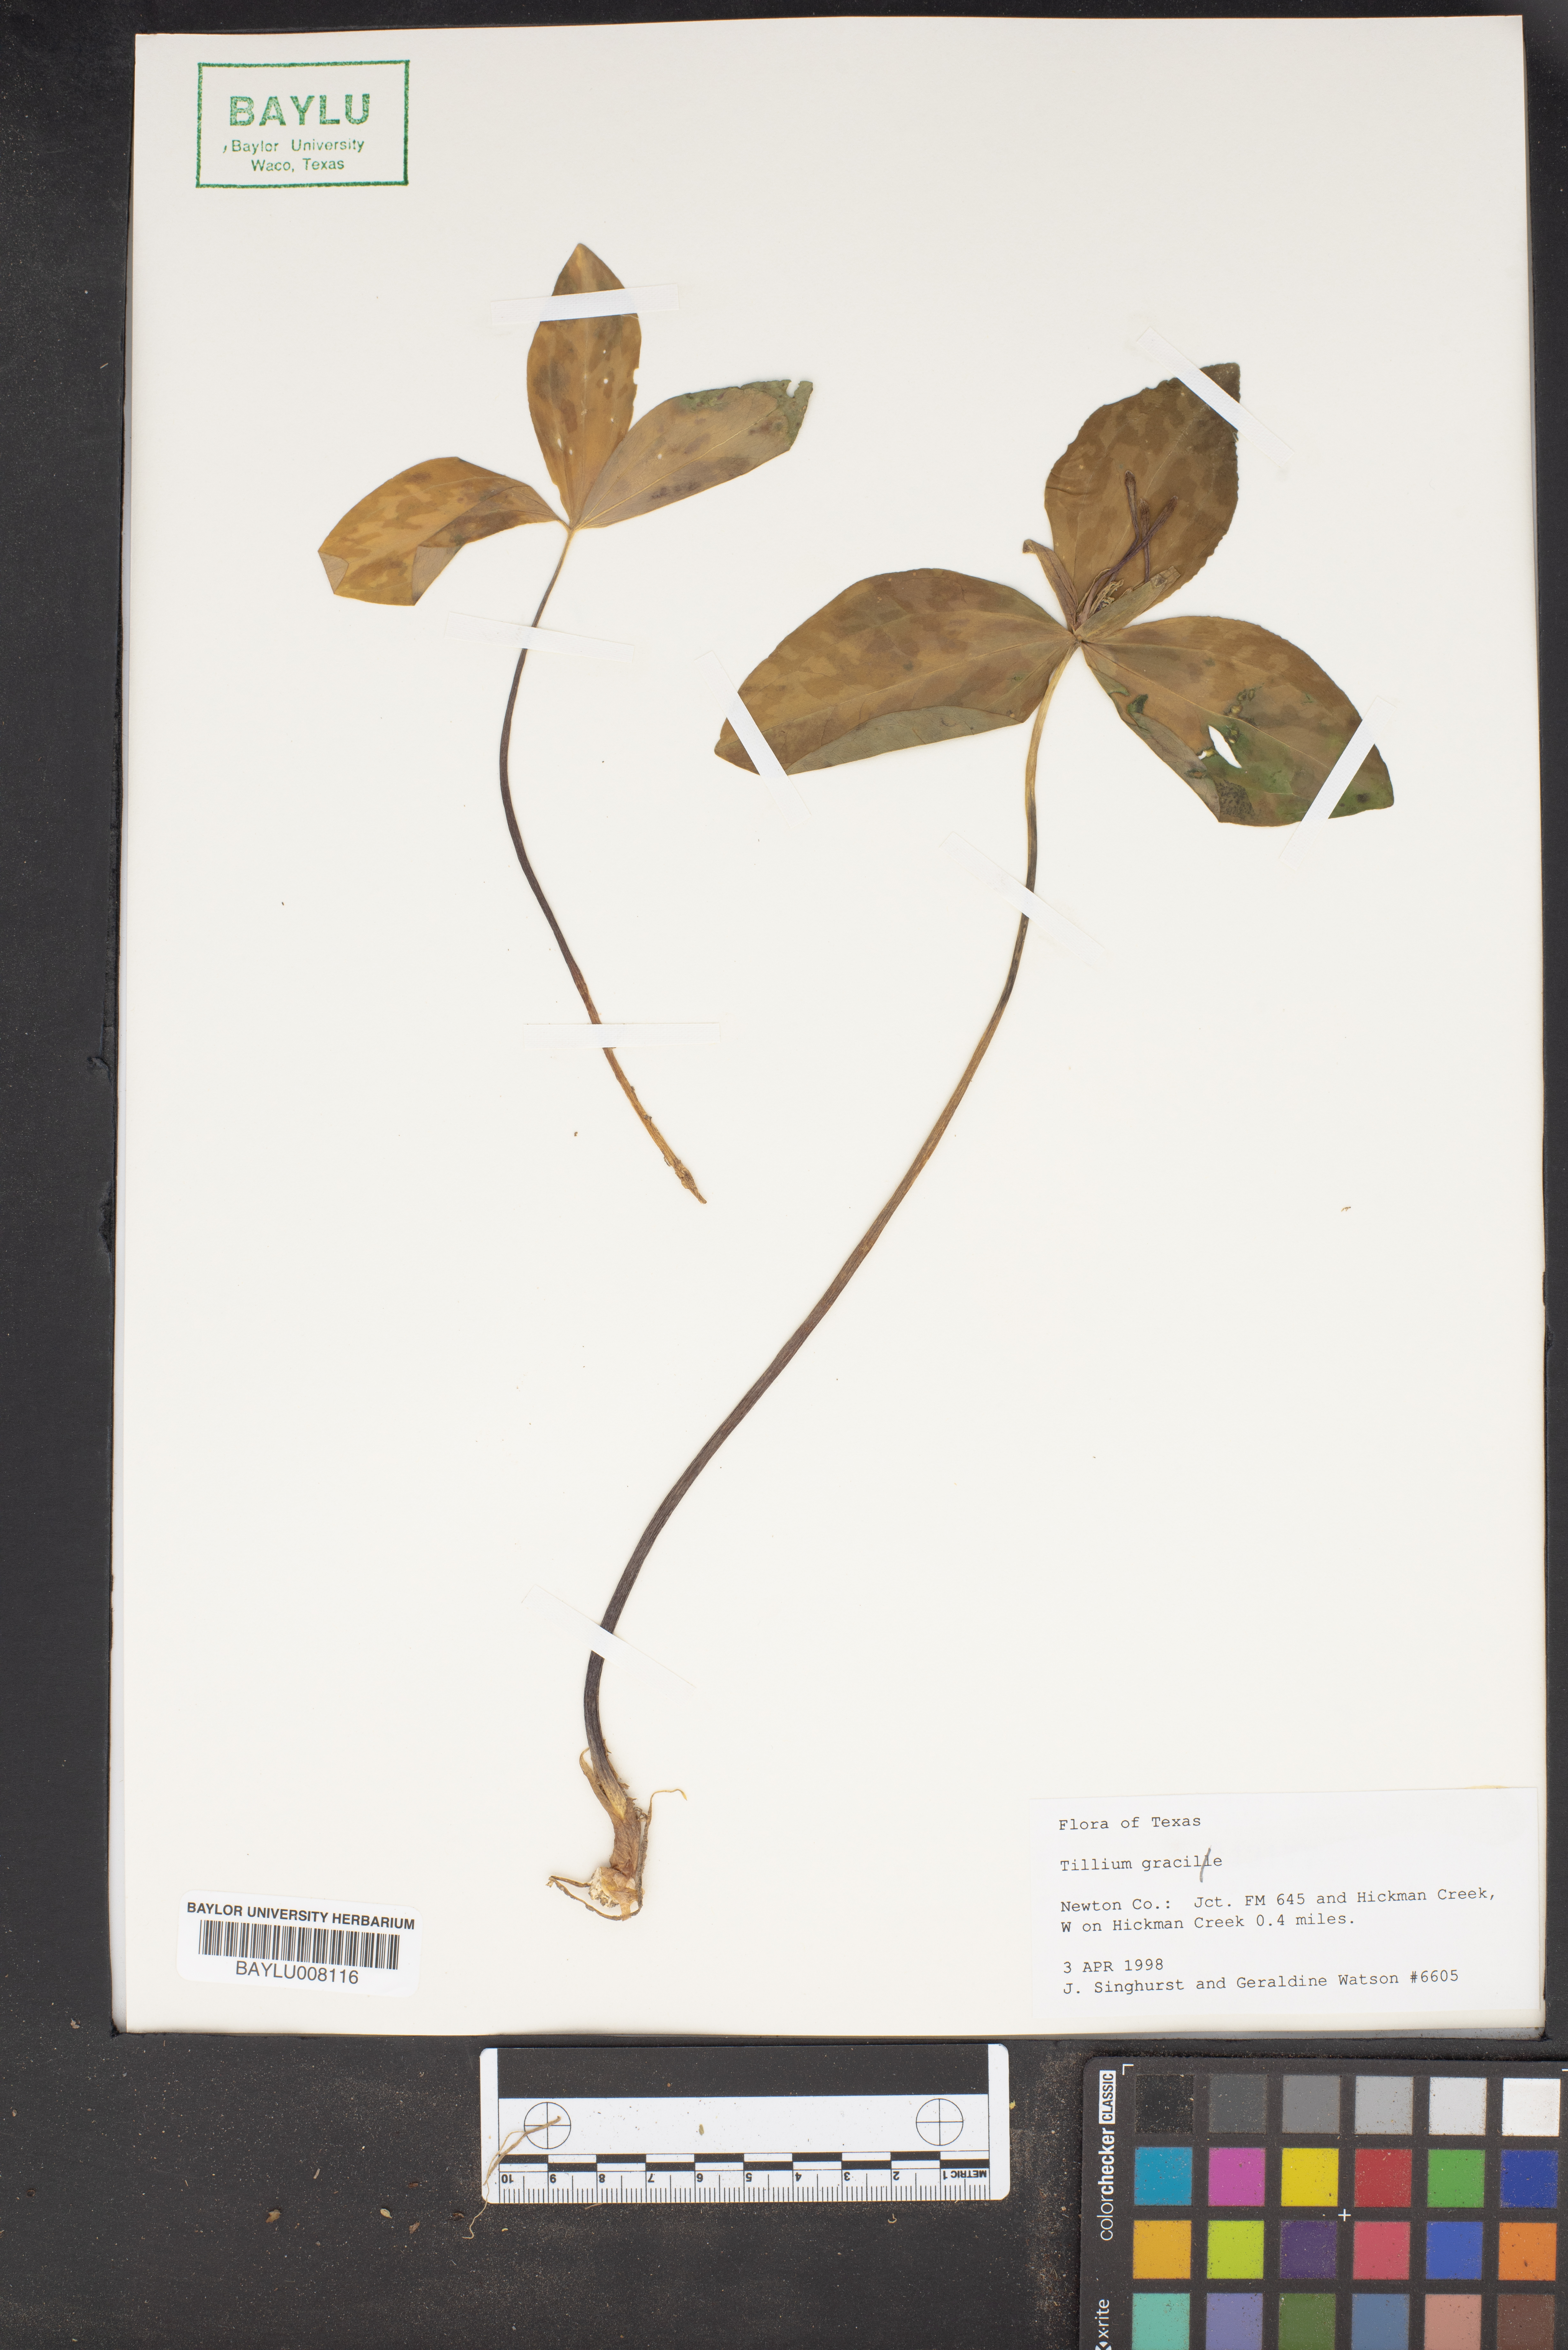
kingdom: Plantae
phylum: Tracheophyta
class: Liliopsida
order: Liliales
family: Melanthiaceae
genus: Trillium
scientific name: Trillium gracile
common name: Graceful trillium
